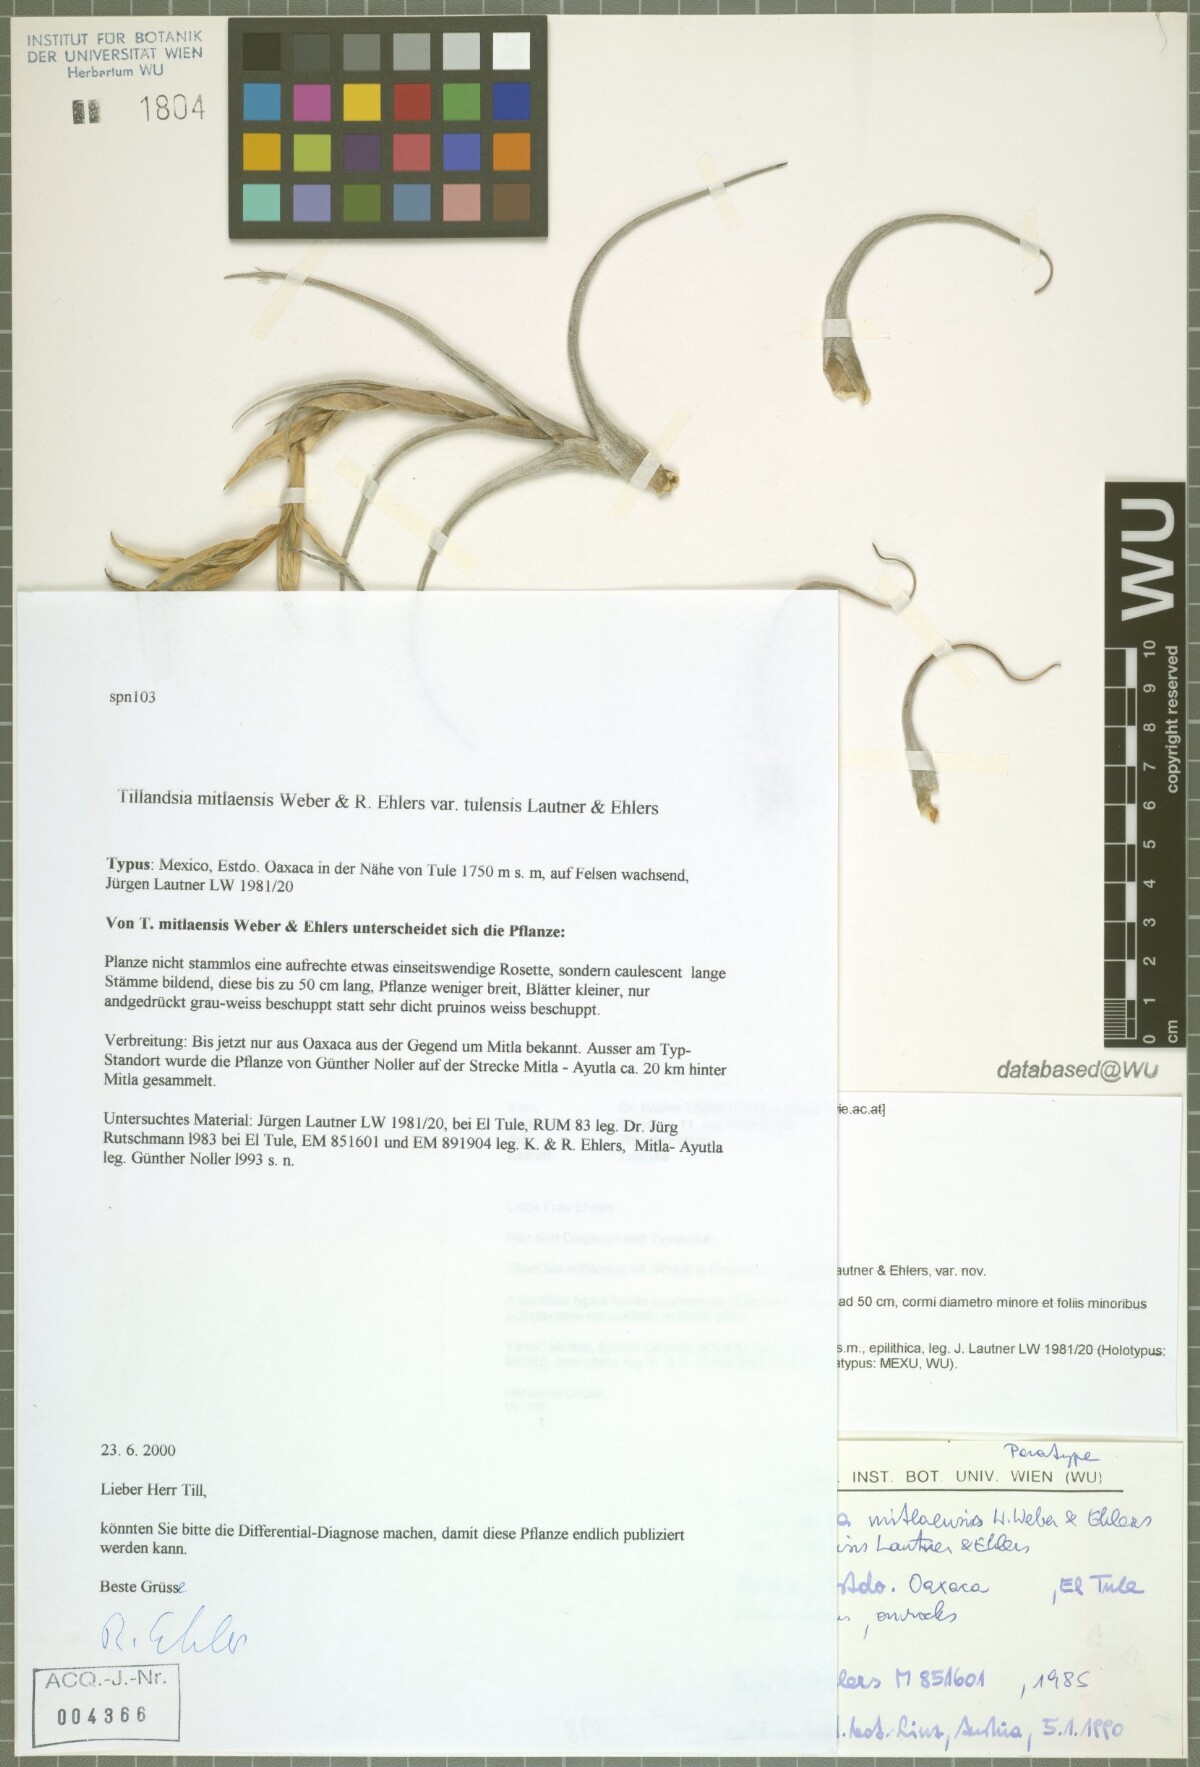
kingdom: Plantae
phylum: Tracheophyta
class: Liliopsida
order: Poales
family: Bromeliaceae
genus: Tillandsia
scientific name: Tillandsia mitlaensis
